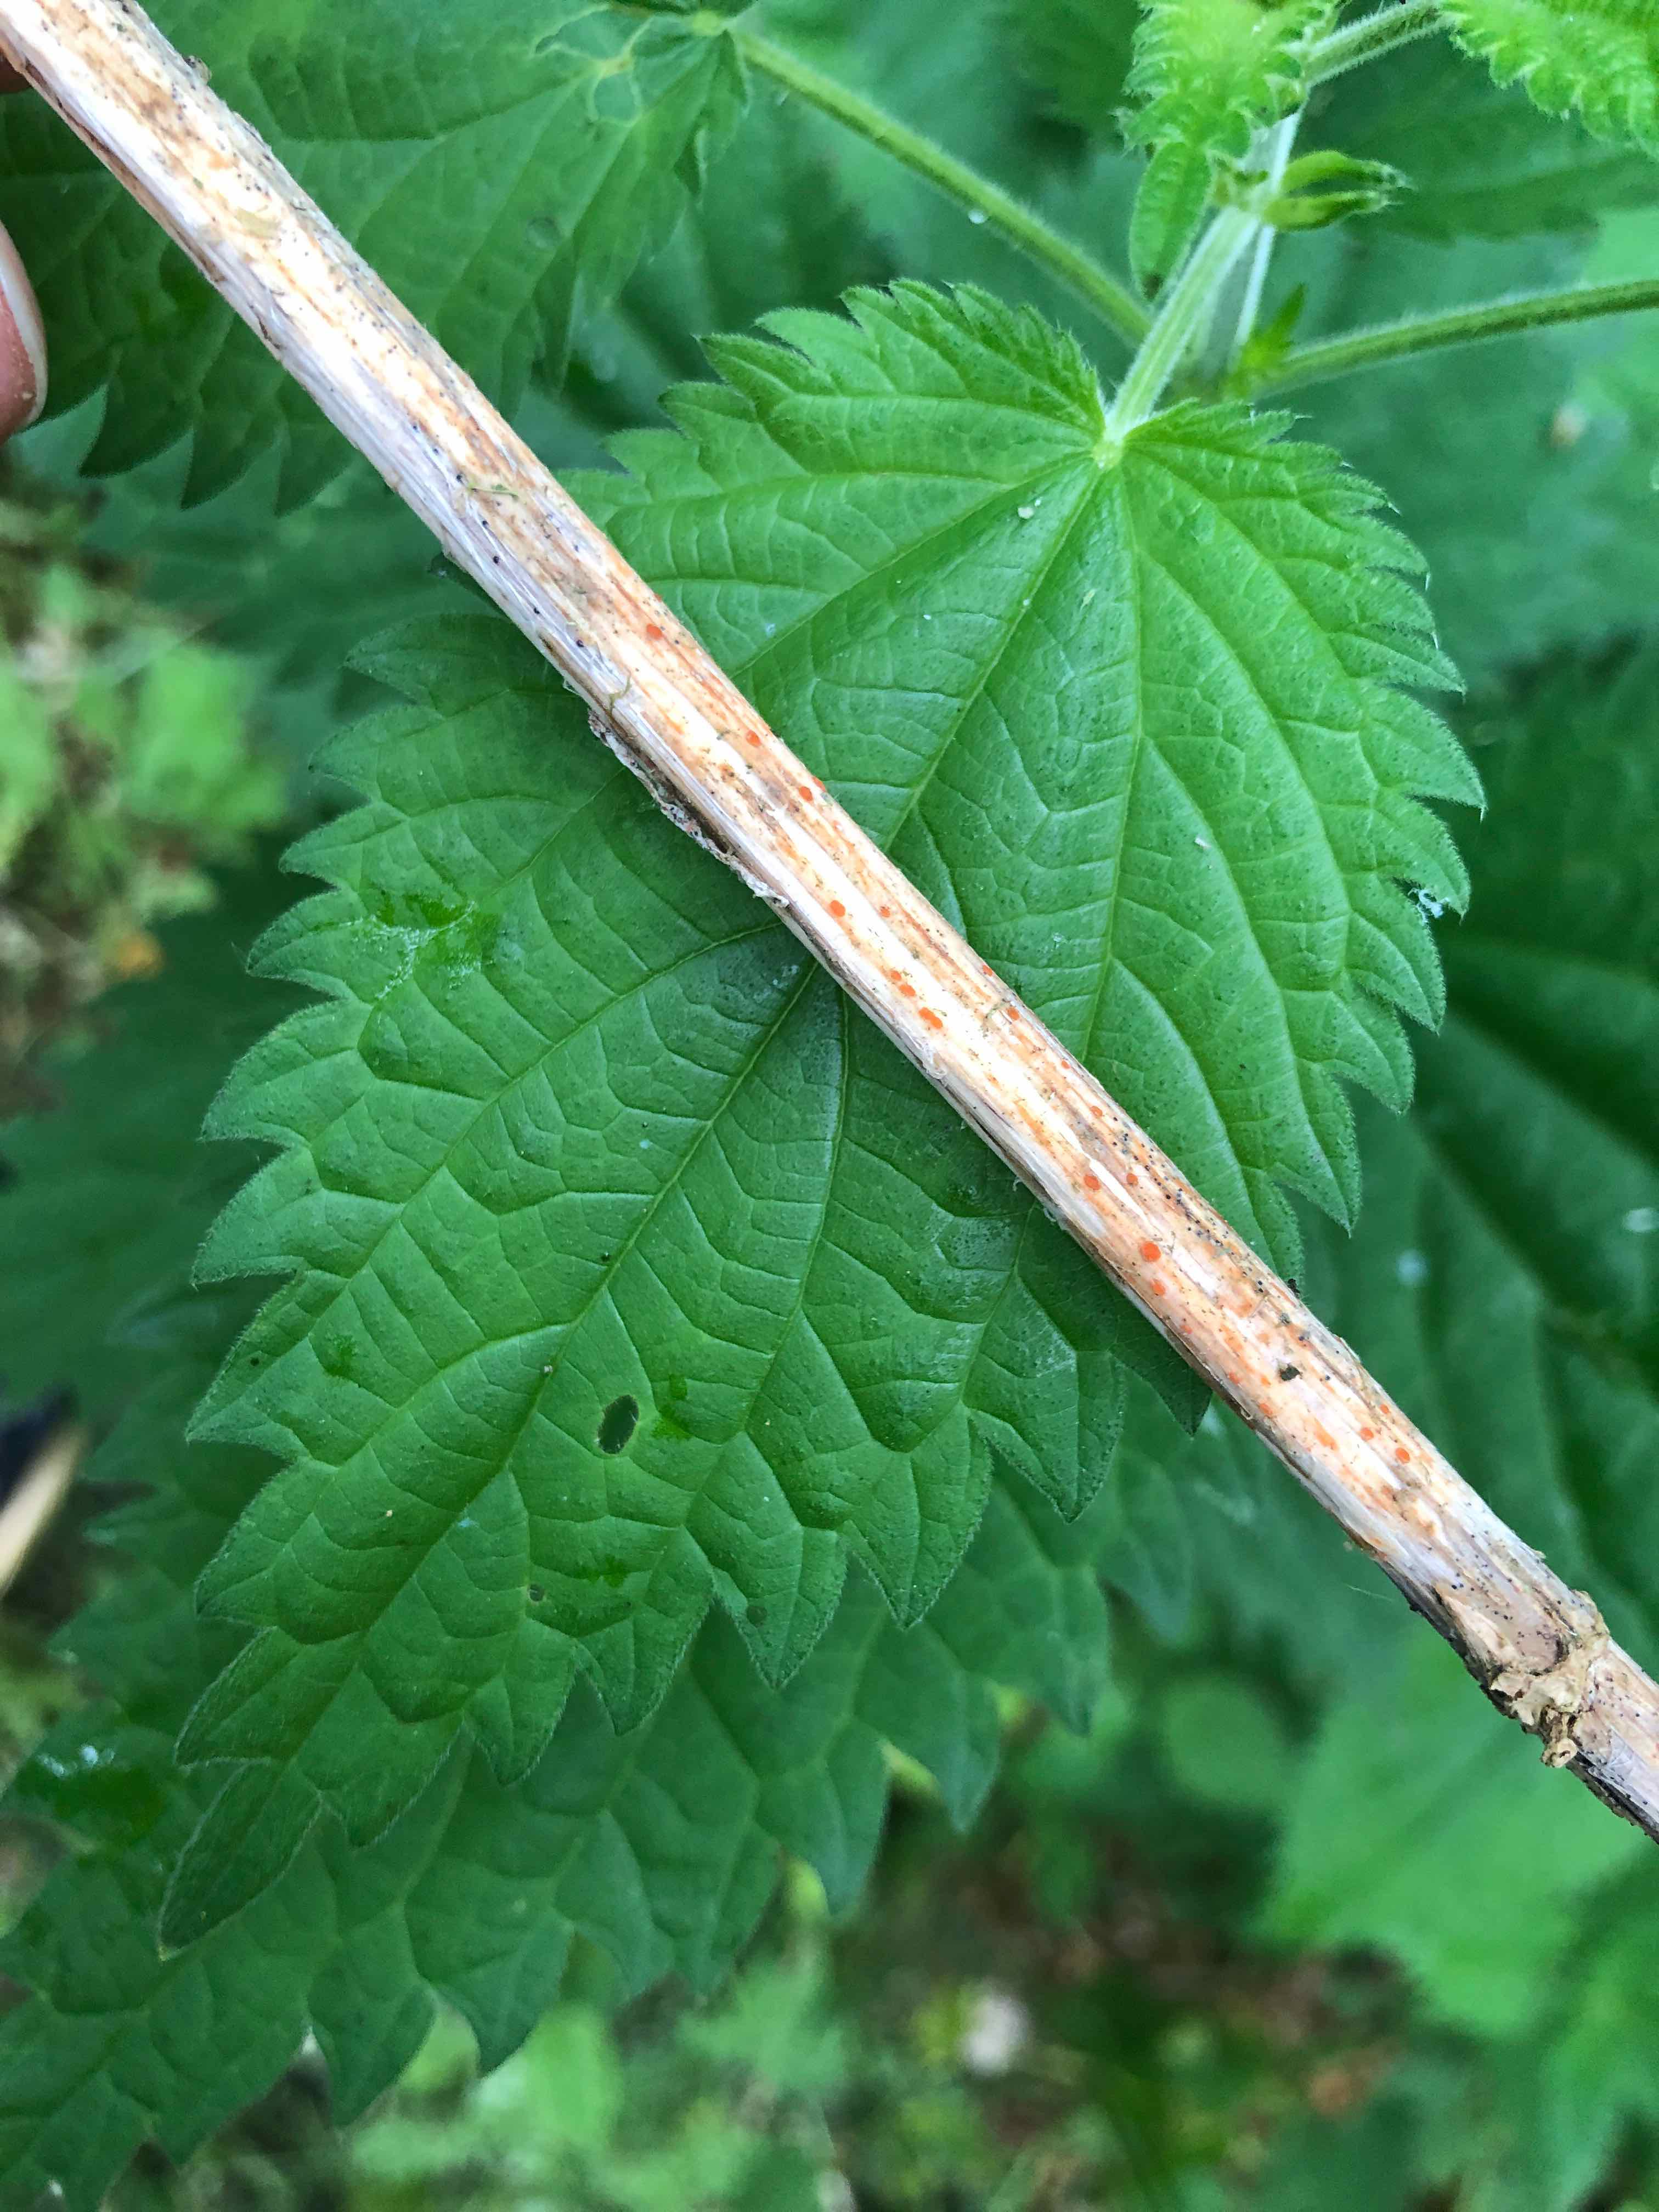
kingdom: Fungi
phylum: Ascomycota
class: Leotiomycetes
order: Helotiales
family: Calloriaceae
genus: Calloria
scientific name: Calloria urticae
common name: nælde-orangeskive
